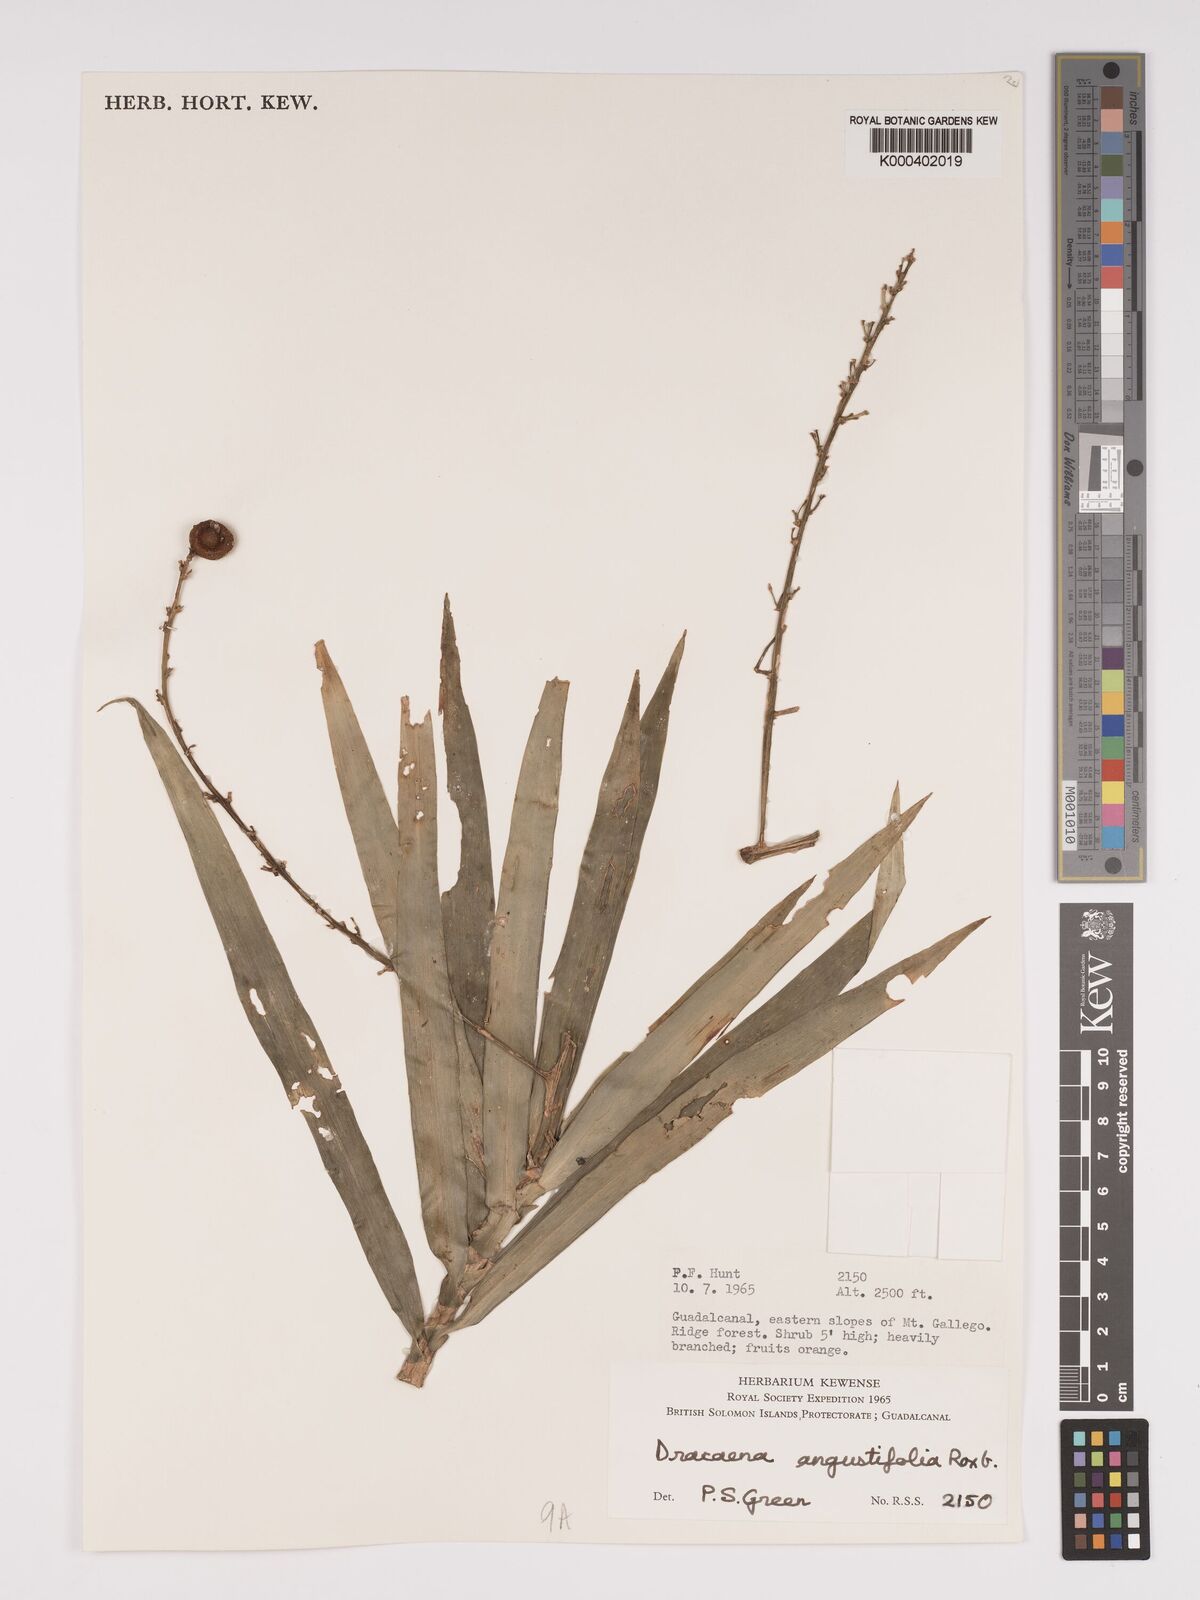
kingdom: Plantae
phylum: Tracheophyta
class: Liliopsida
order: Asparagales
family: Asparagaceae
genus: Dracaena
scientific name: Dracaena angustifolia
